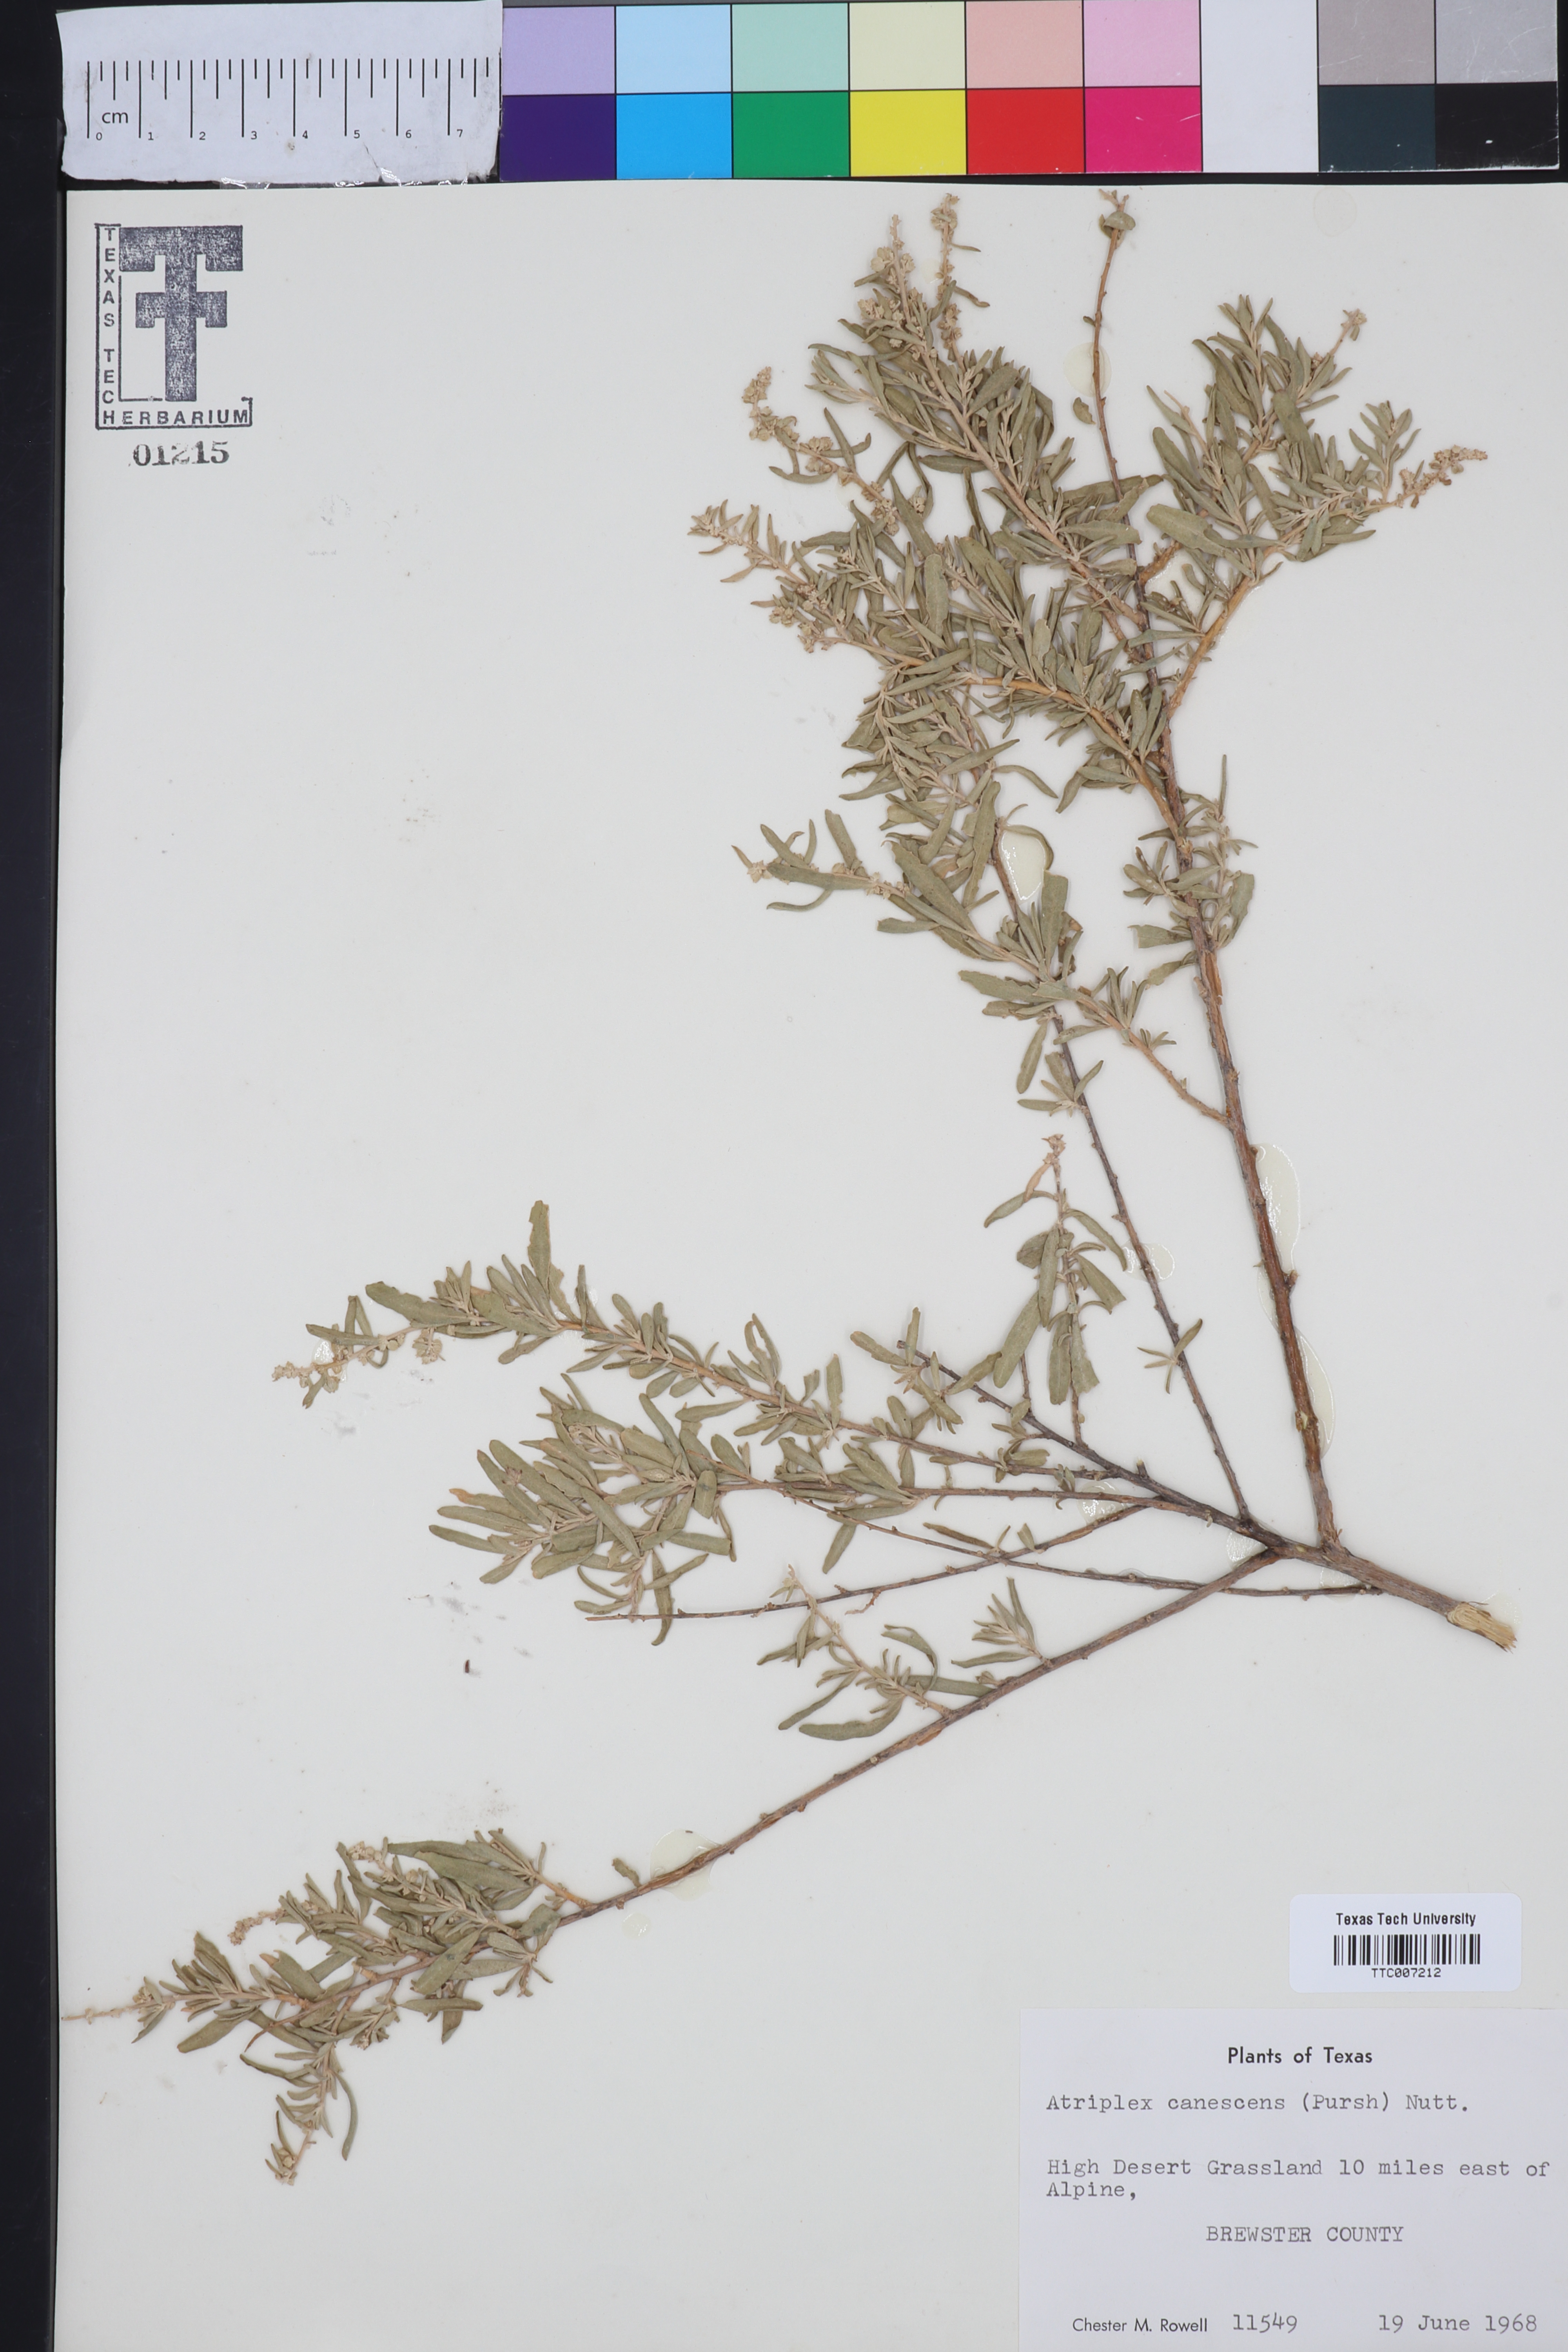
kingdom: Plantae
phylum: Tracheophyta
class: Magnoliopsida
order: Caryophyllales
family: Amaranthaceae
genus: Atriplex
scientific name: Atriplex canescens
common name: Four-wing saltbush
